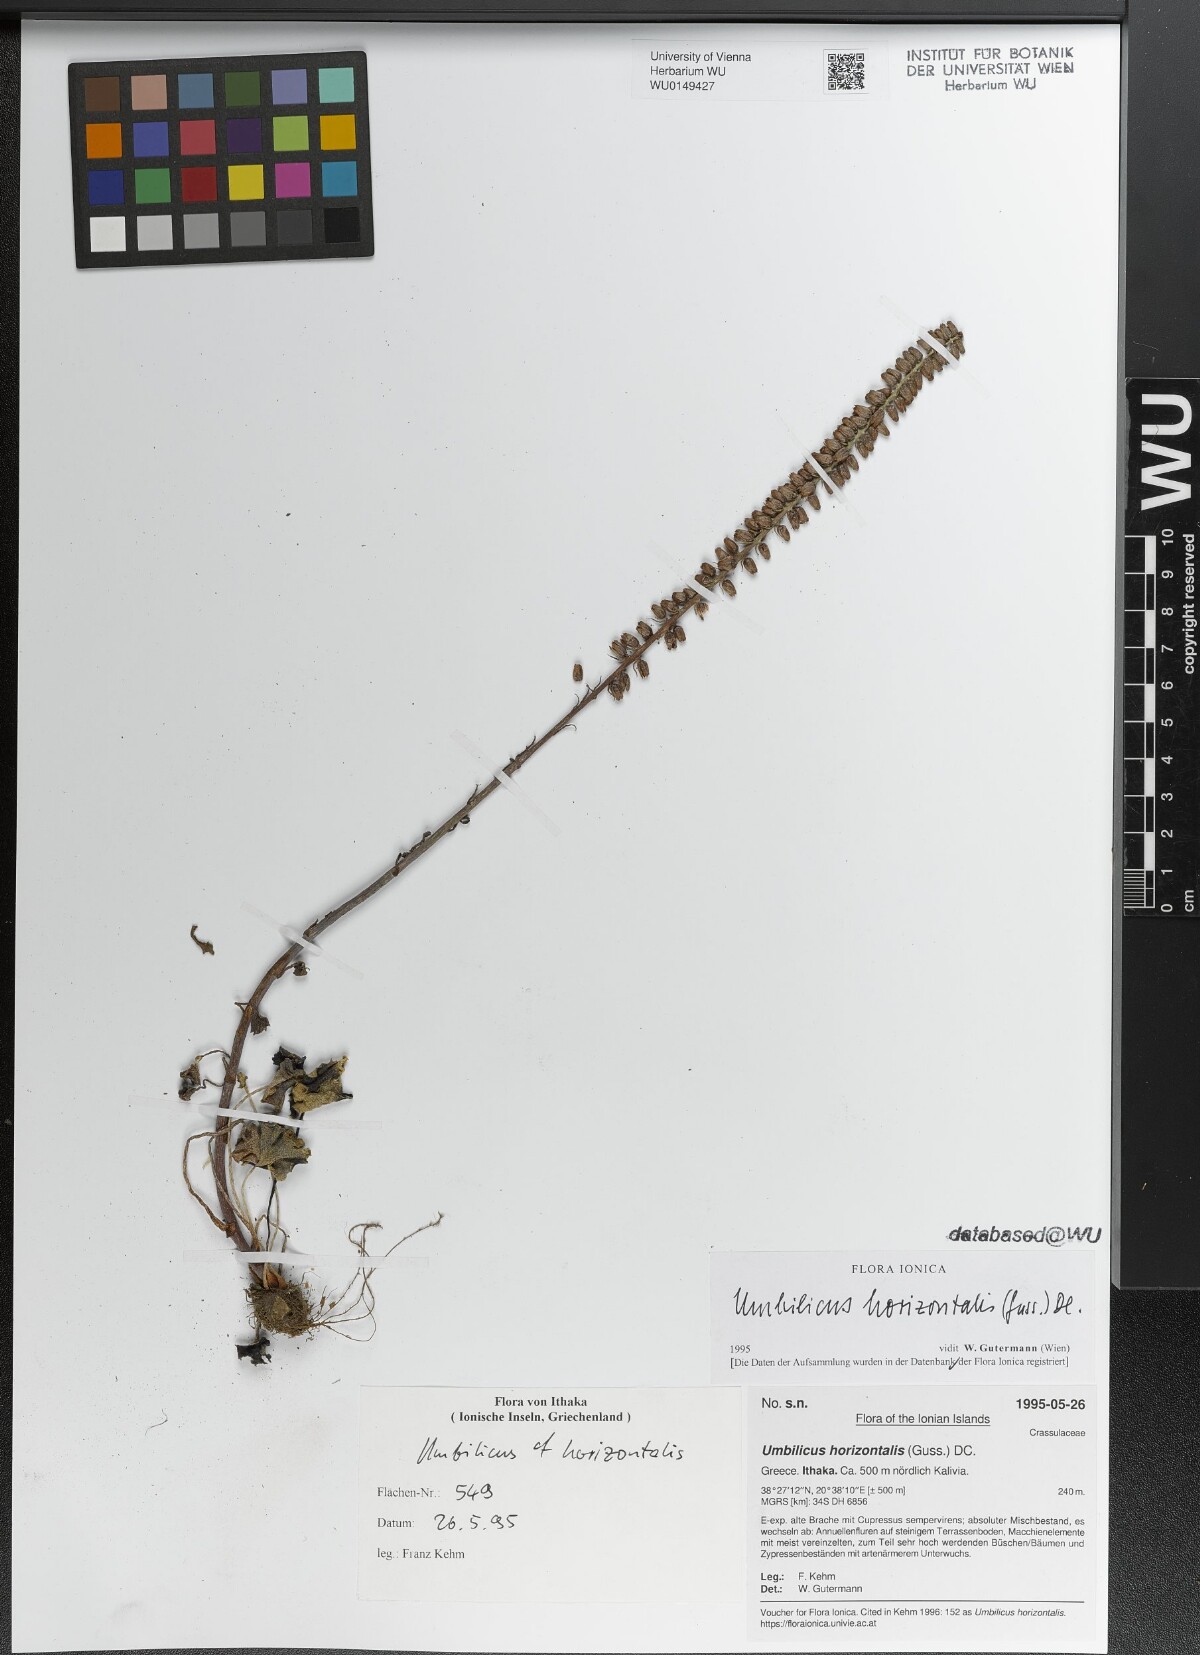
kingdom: Plantae
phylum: Tracheophyta
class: Magnoliopsida
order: Saxifragales
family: Crassulaceae
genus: Umbilicus
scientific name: Umbilicus horizontalis
